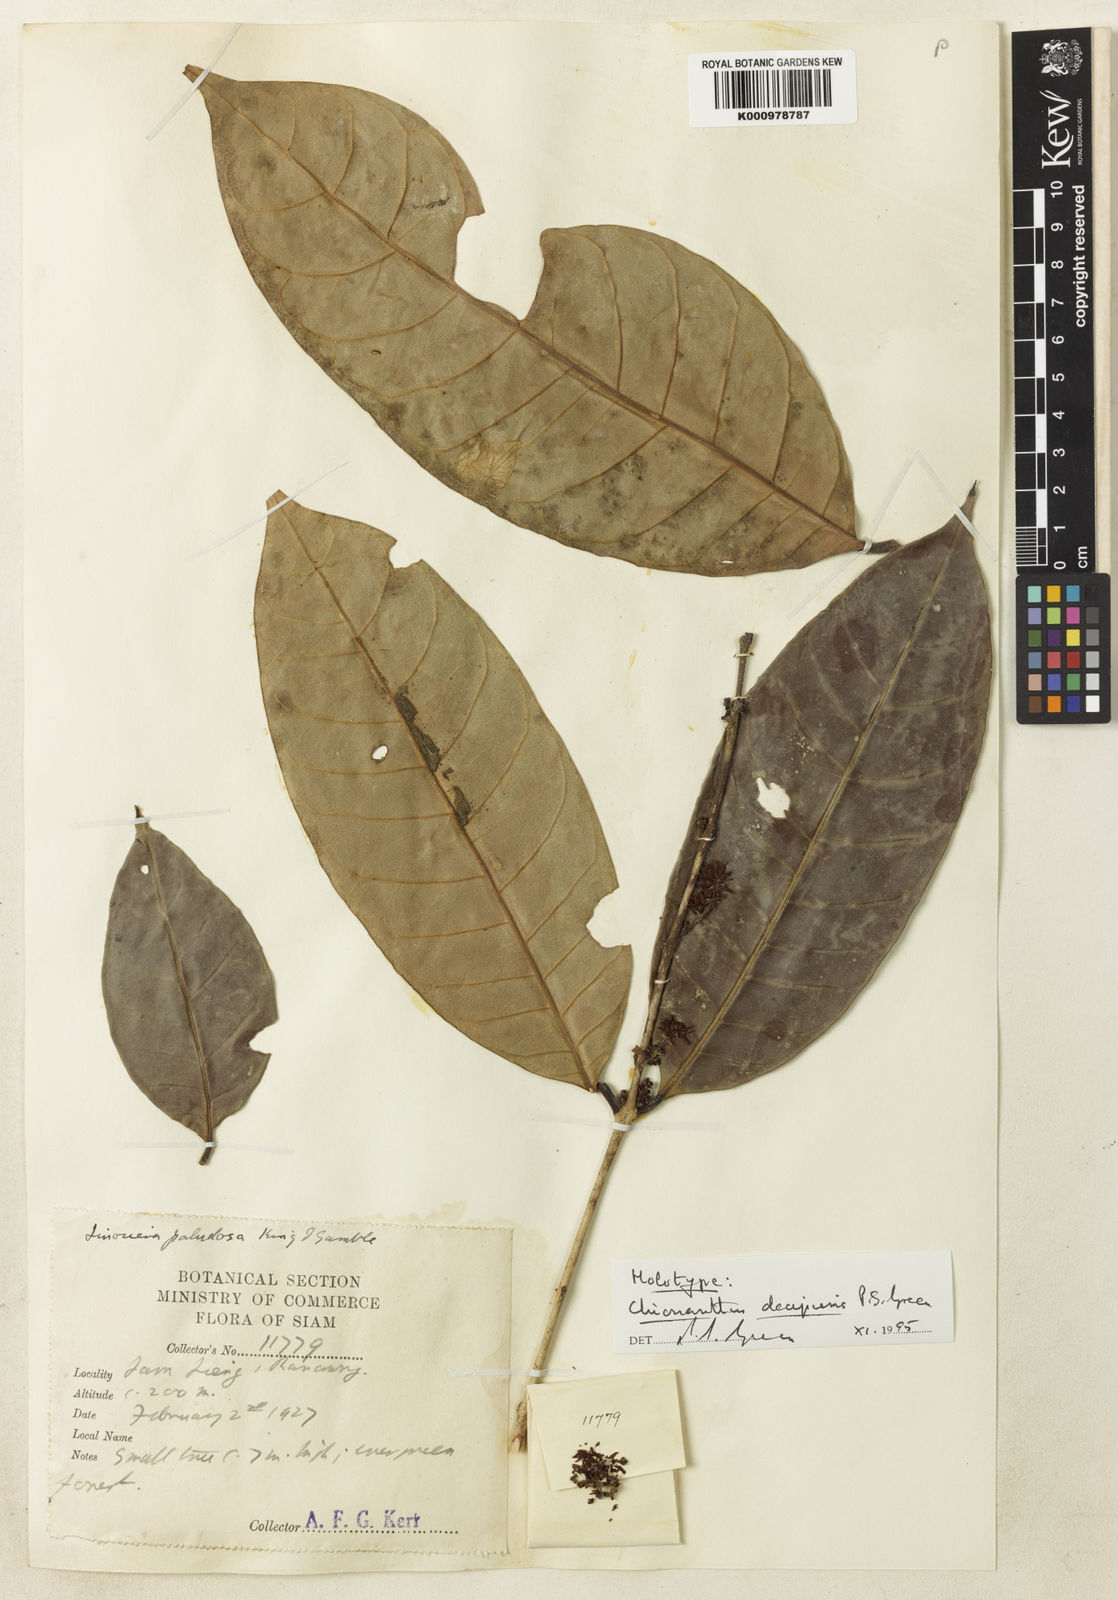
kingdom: Plantae
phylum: Tracheophyta
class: Magnoliopsida
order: Lamiales
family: Oleaceae
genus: Chionanthus
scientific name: Chionanthus decipiens
